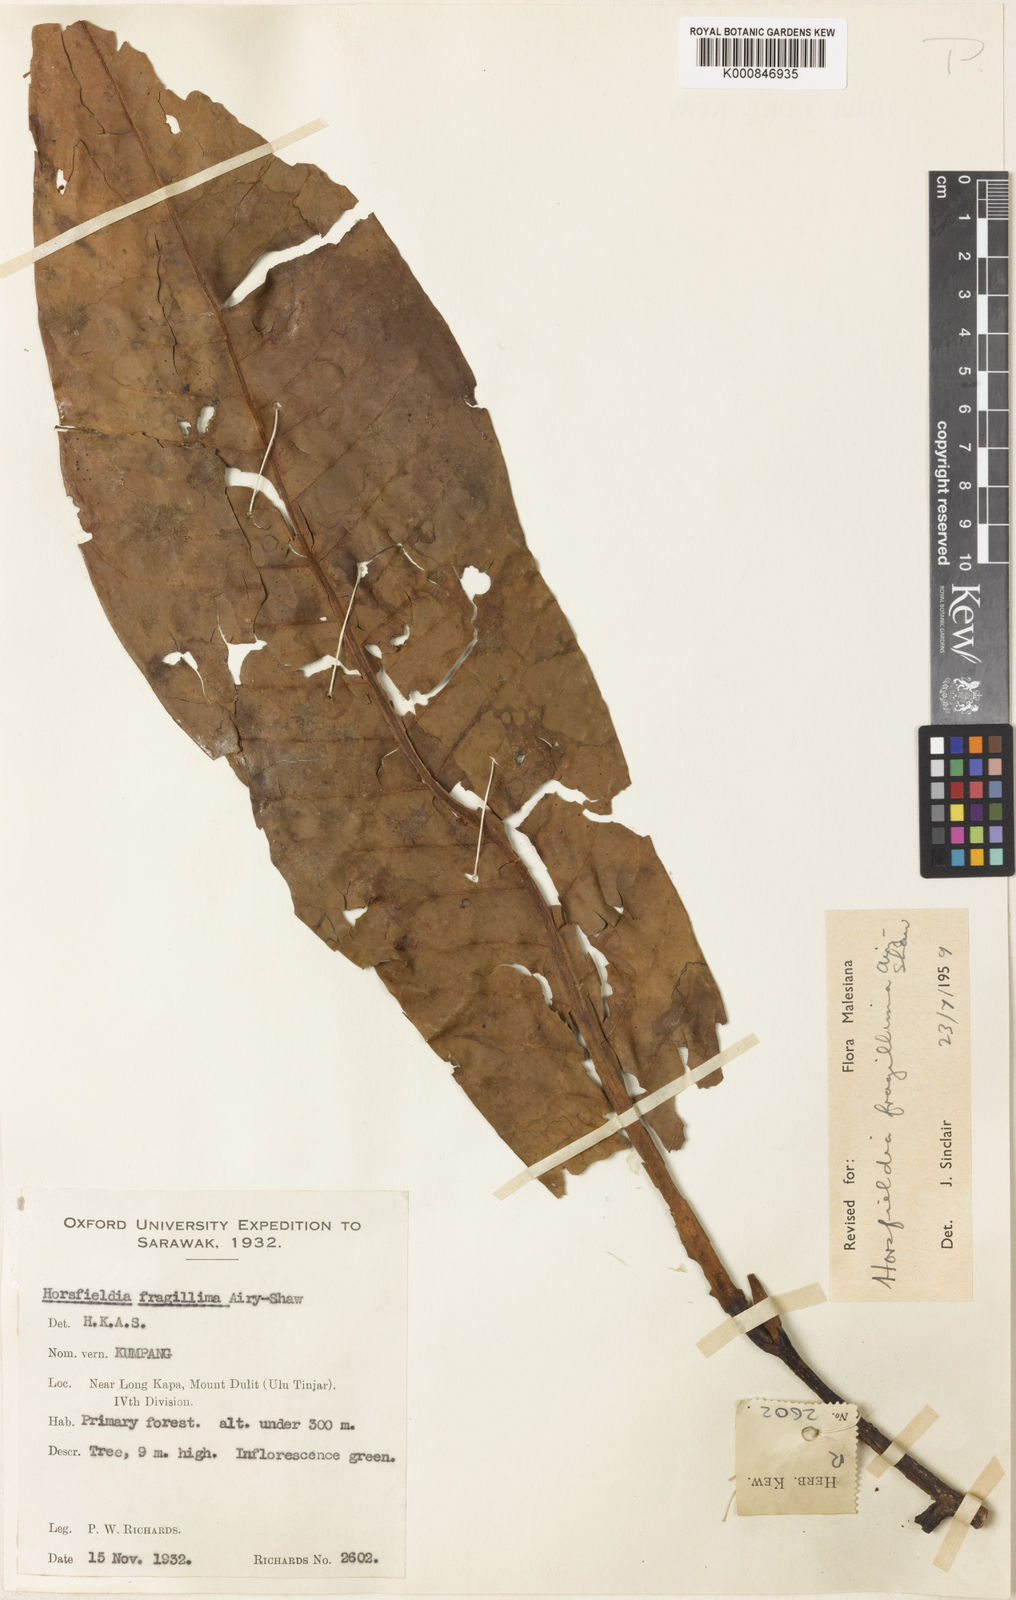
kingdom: Plantae
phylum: Tracheophyta
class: Magnoliopsida
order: Magnoliales
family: Myristicaceae
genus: Horsfieldia
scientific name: Horsfieldia fragillima
